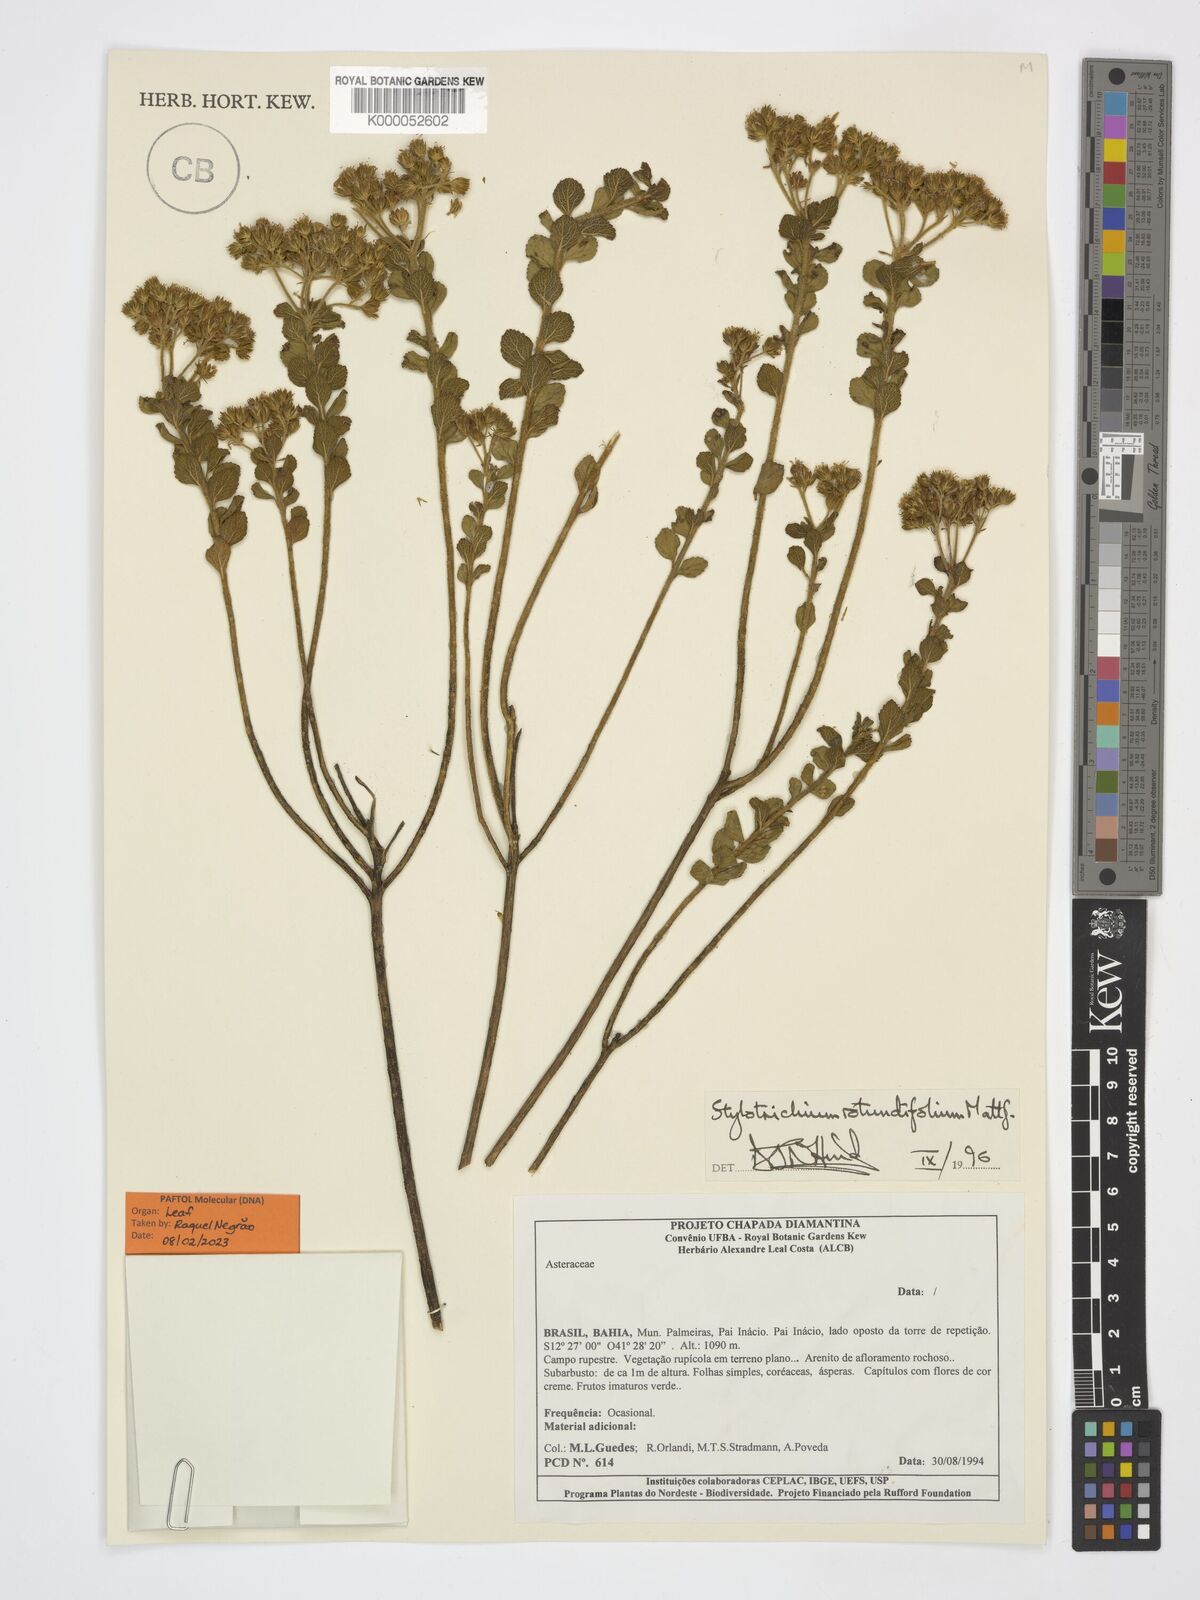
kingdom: Plantae
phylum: Tracheophyta
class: Magnoliopsida
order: Asterales
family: Asteraceae
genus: Stylotrichium
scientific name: Stylotrichium rotundifolium
